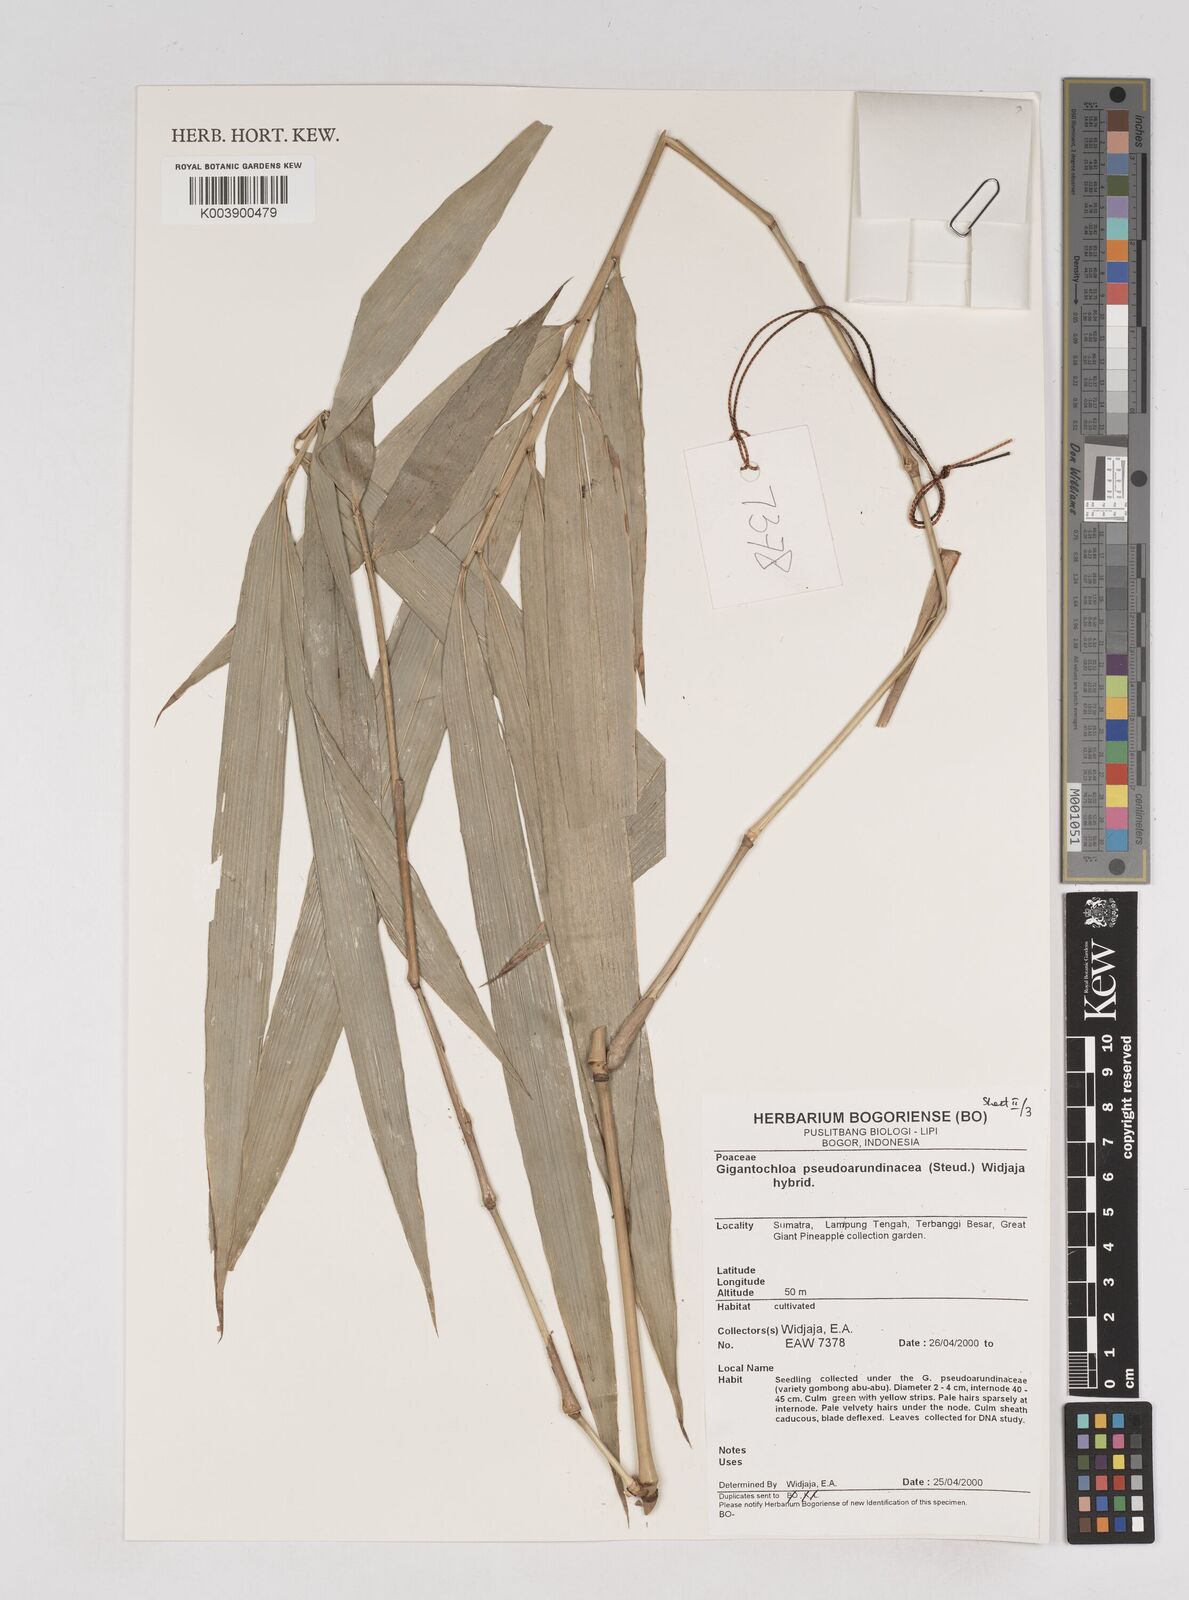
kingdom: Plantae
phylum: Tracheophyta
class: Liliopsida
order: Poales
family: Poaceae
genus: Gigantochloa
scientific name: Gigantochloa verticillata
